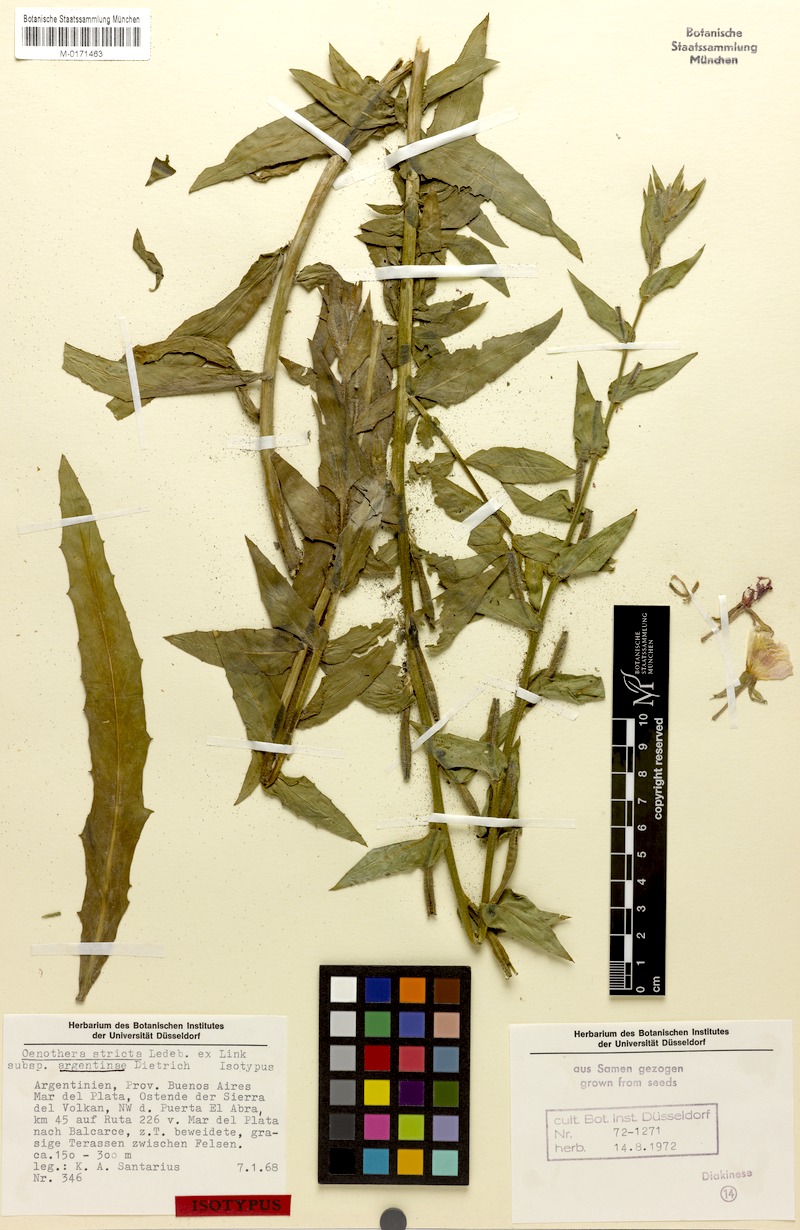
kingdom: Plantae
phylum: Tracheophyta
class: Magnoliopsida
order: Myrtales
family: Onagraceae
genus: Oenothera
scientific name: Oenothera parodiana
